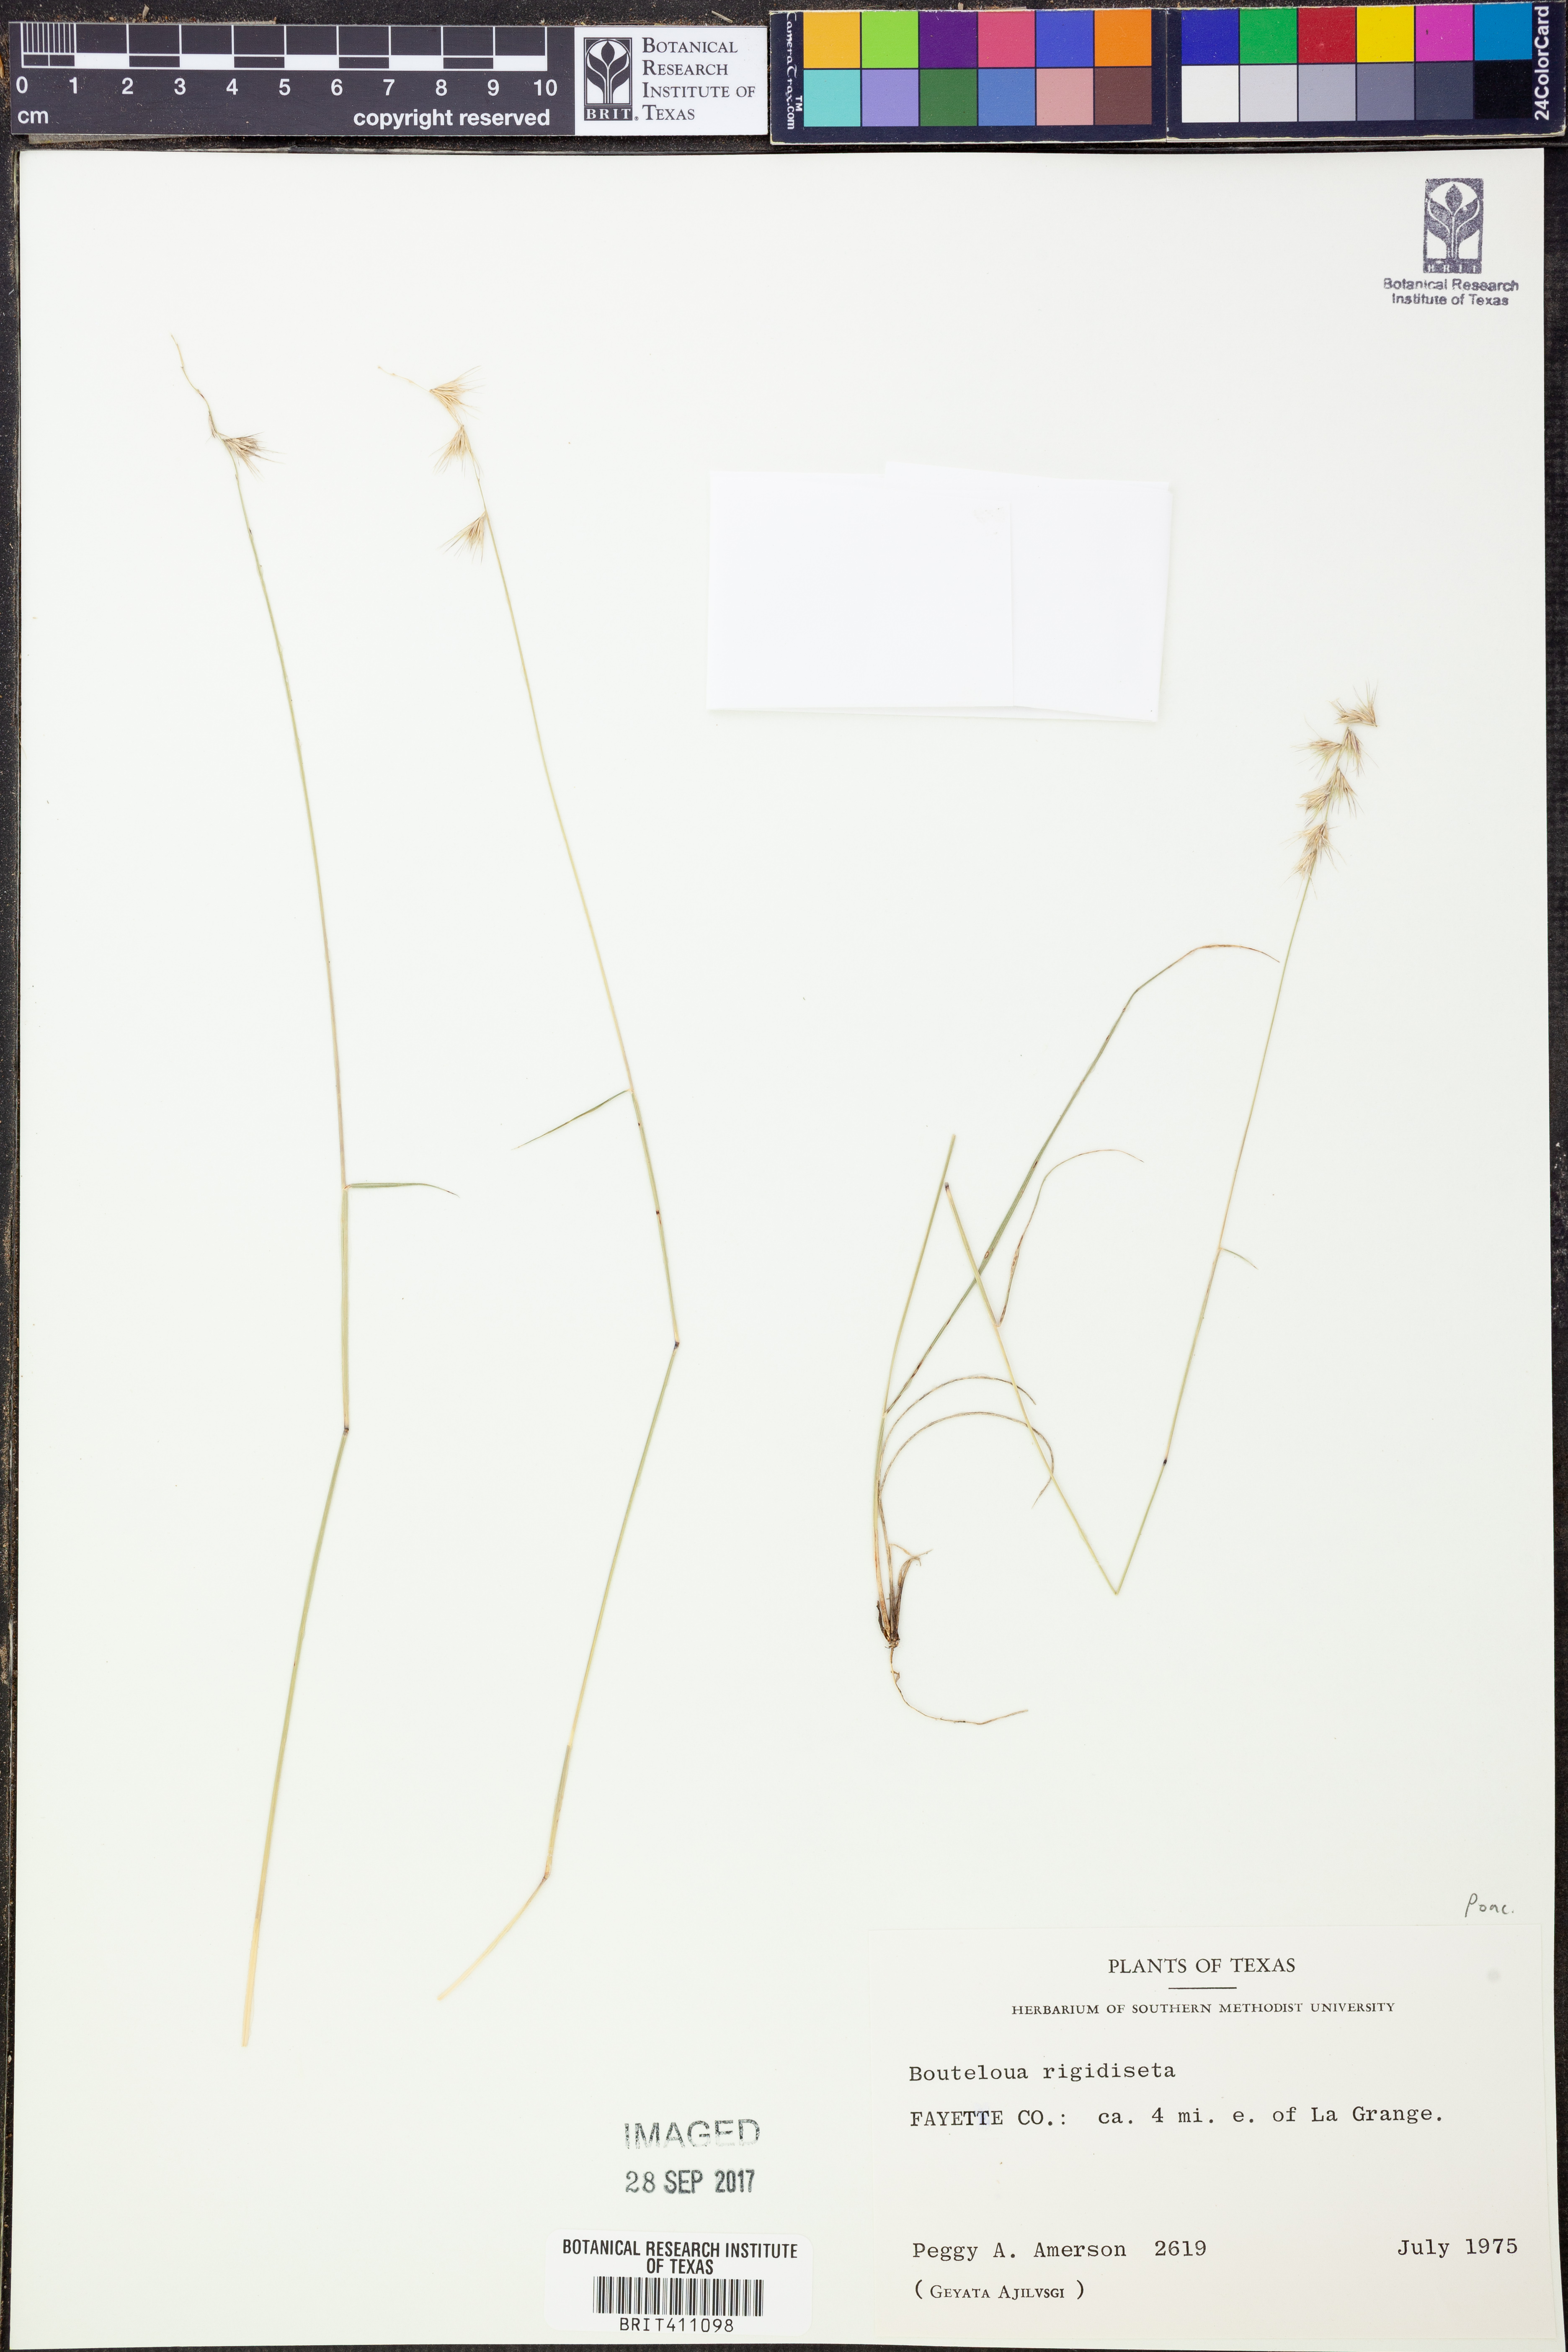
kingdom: Plantae
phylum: Tracheophyta
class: Liliopsida
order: Poales
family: Poaceae
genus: Bouteloua
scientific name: Bouteloua rigidiseta
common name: Texas grama
